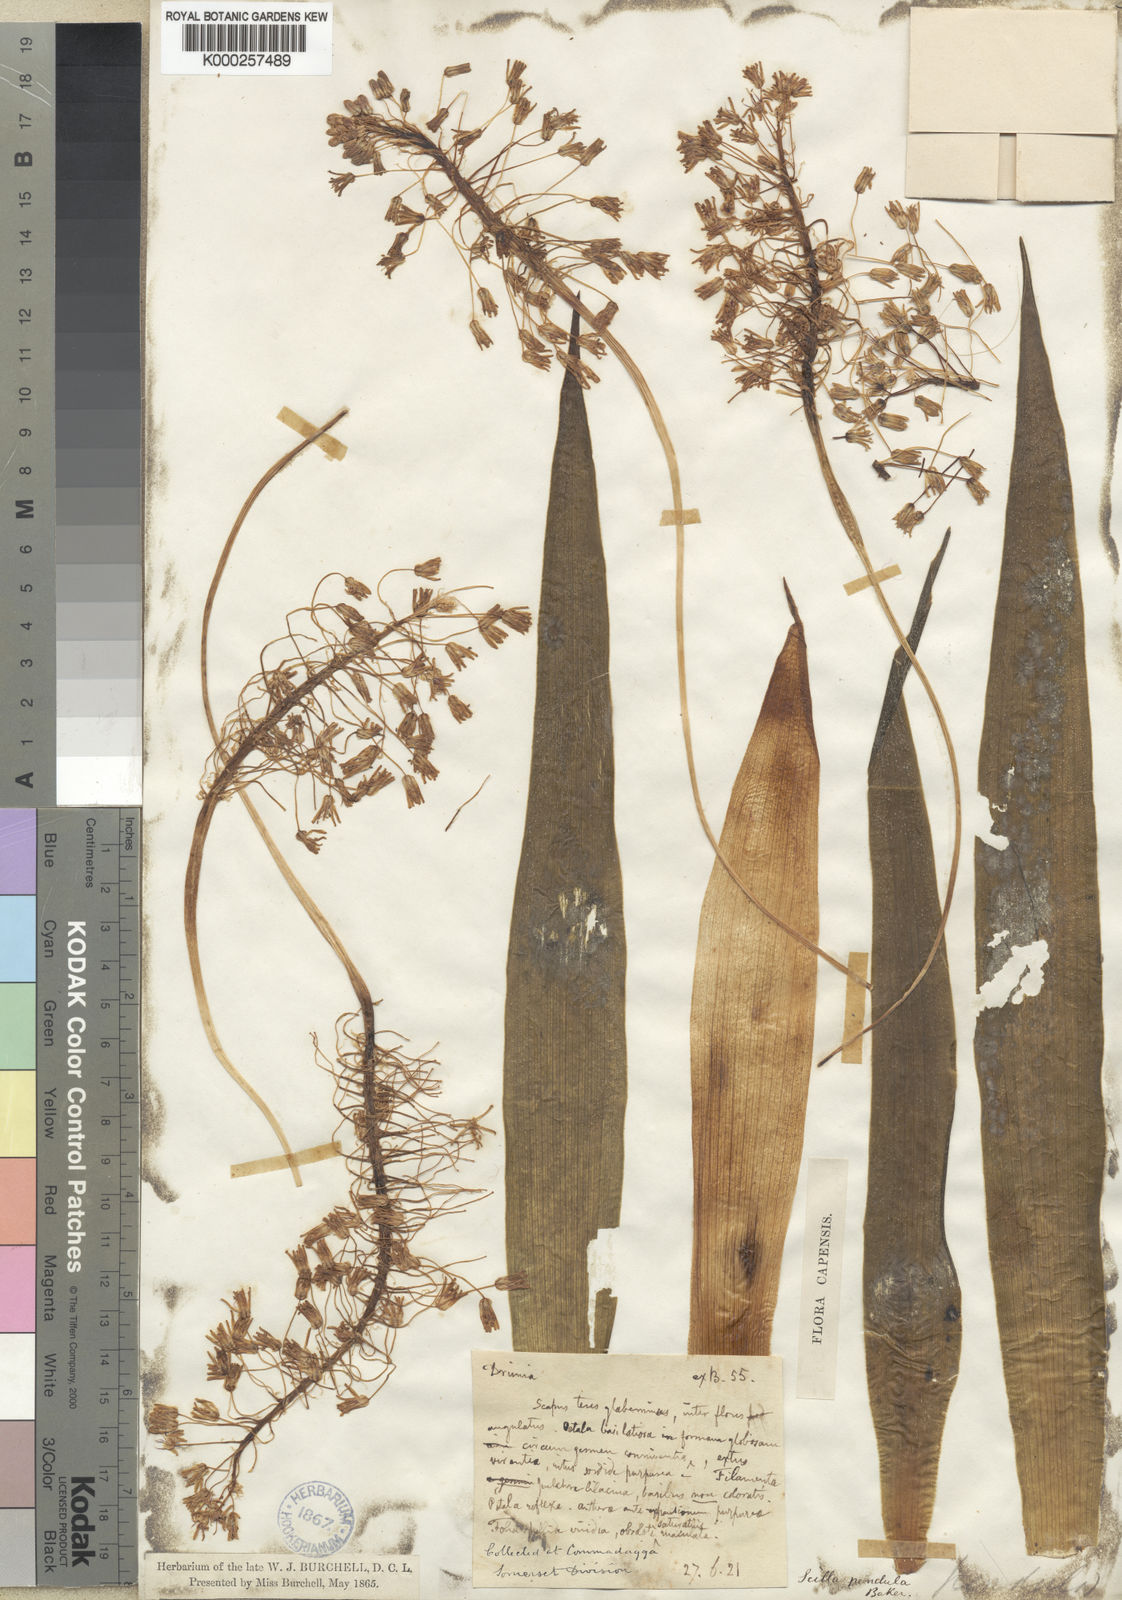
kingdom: Plantae
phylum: Tracheophyta
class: Liliopsida
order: Asparagales
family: Asparagaceae
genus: Ledebouria
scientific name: Ledebouria floribunda
